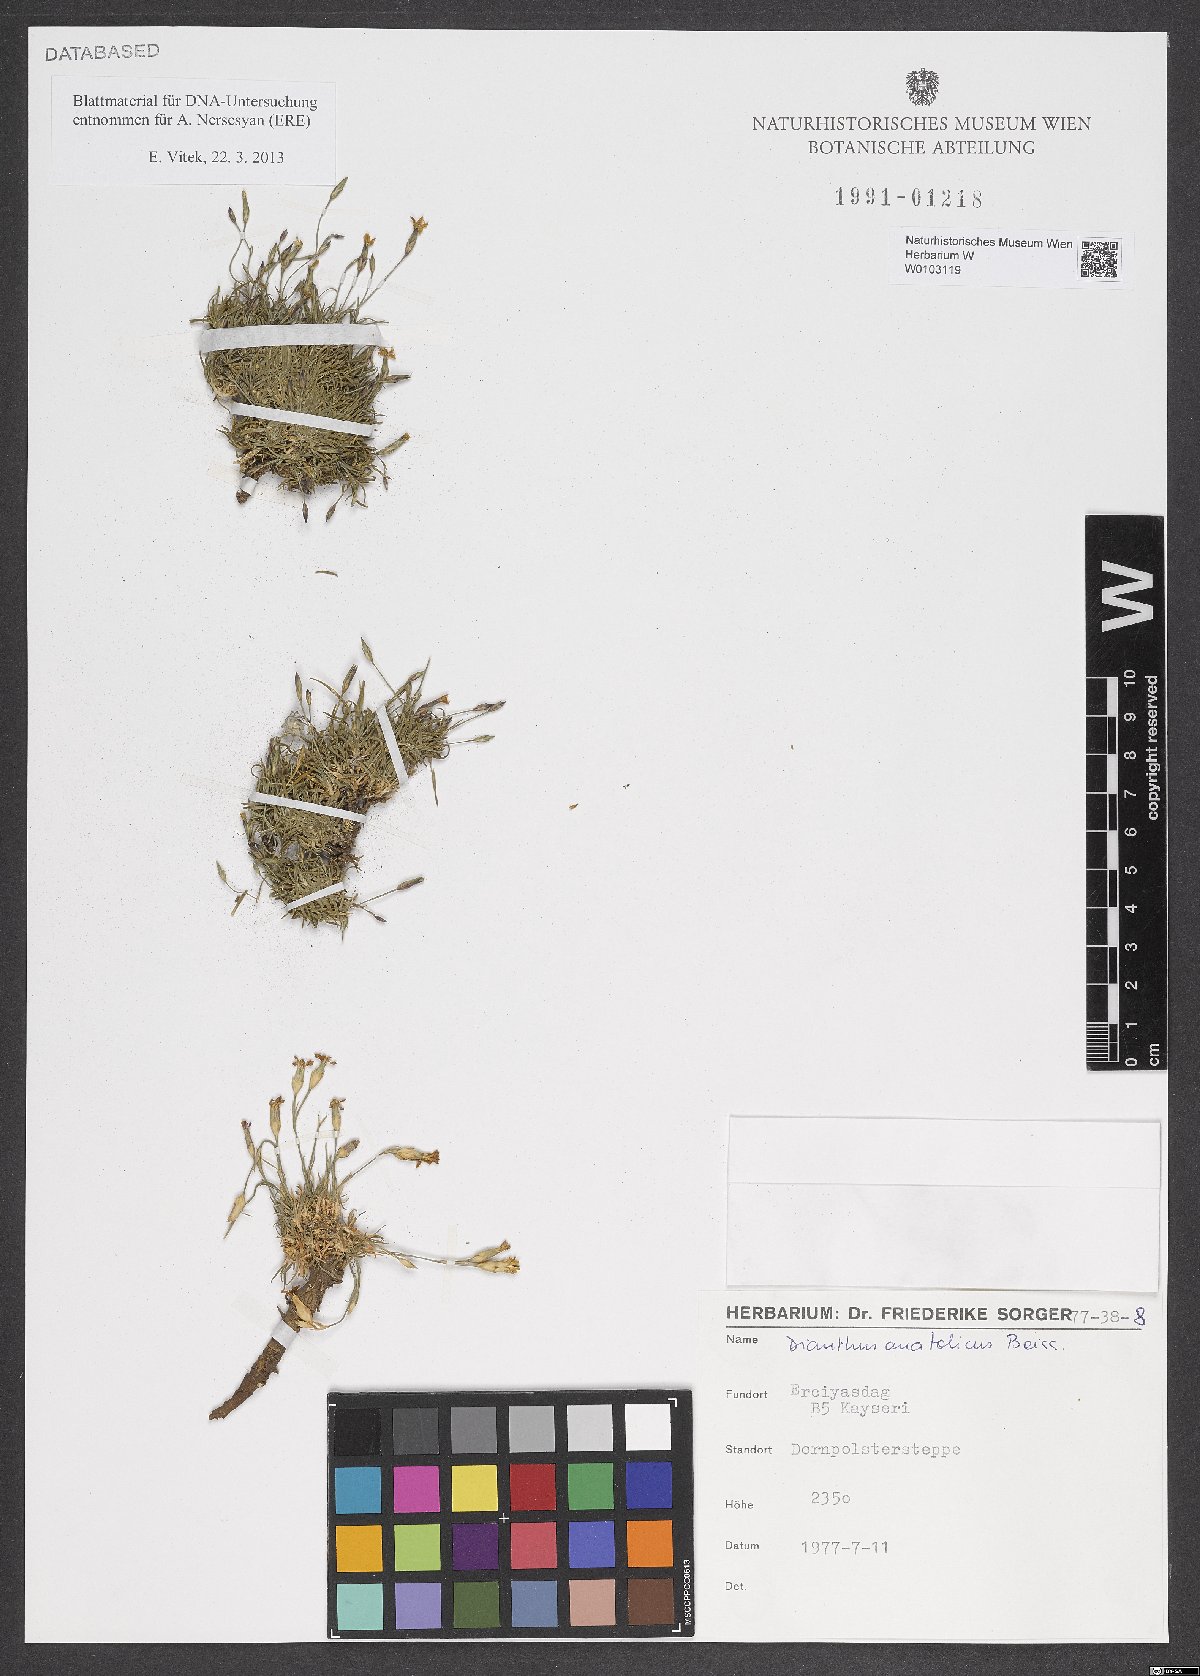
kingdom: Plantae
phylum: Tracheophyta
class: Magnoliopsida
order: Caryophyllales
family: Caryophyllaceae
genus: Dianthus
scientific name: Dianthus anatolicus
